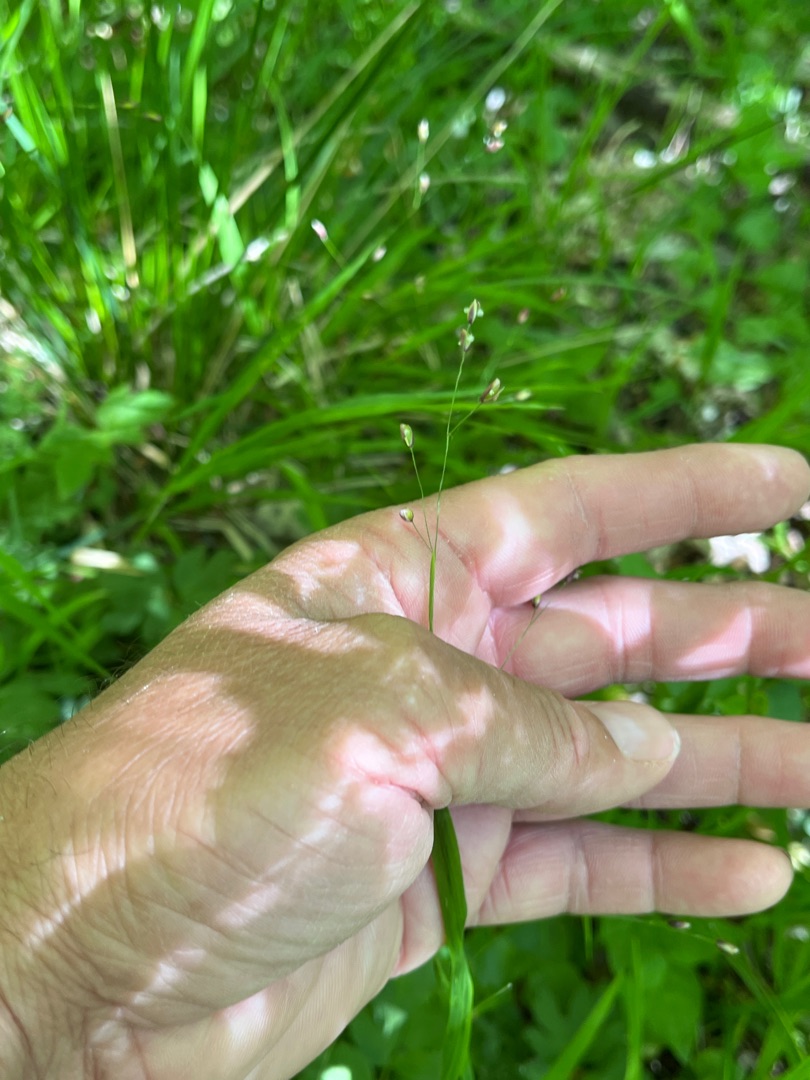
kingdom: Plantae
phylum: Tracheophyta
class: Liliopsida
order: Poales
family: Poaceae
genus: Melica
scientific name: Melica uniflora
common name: Enblomstret flitteraks
